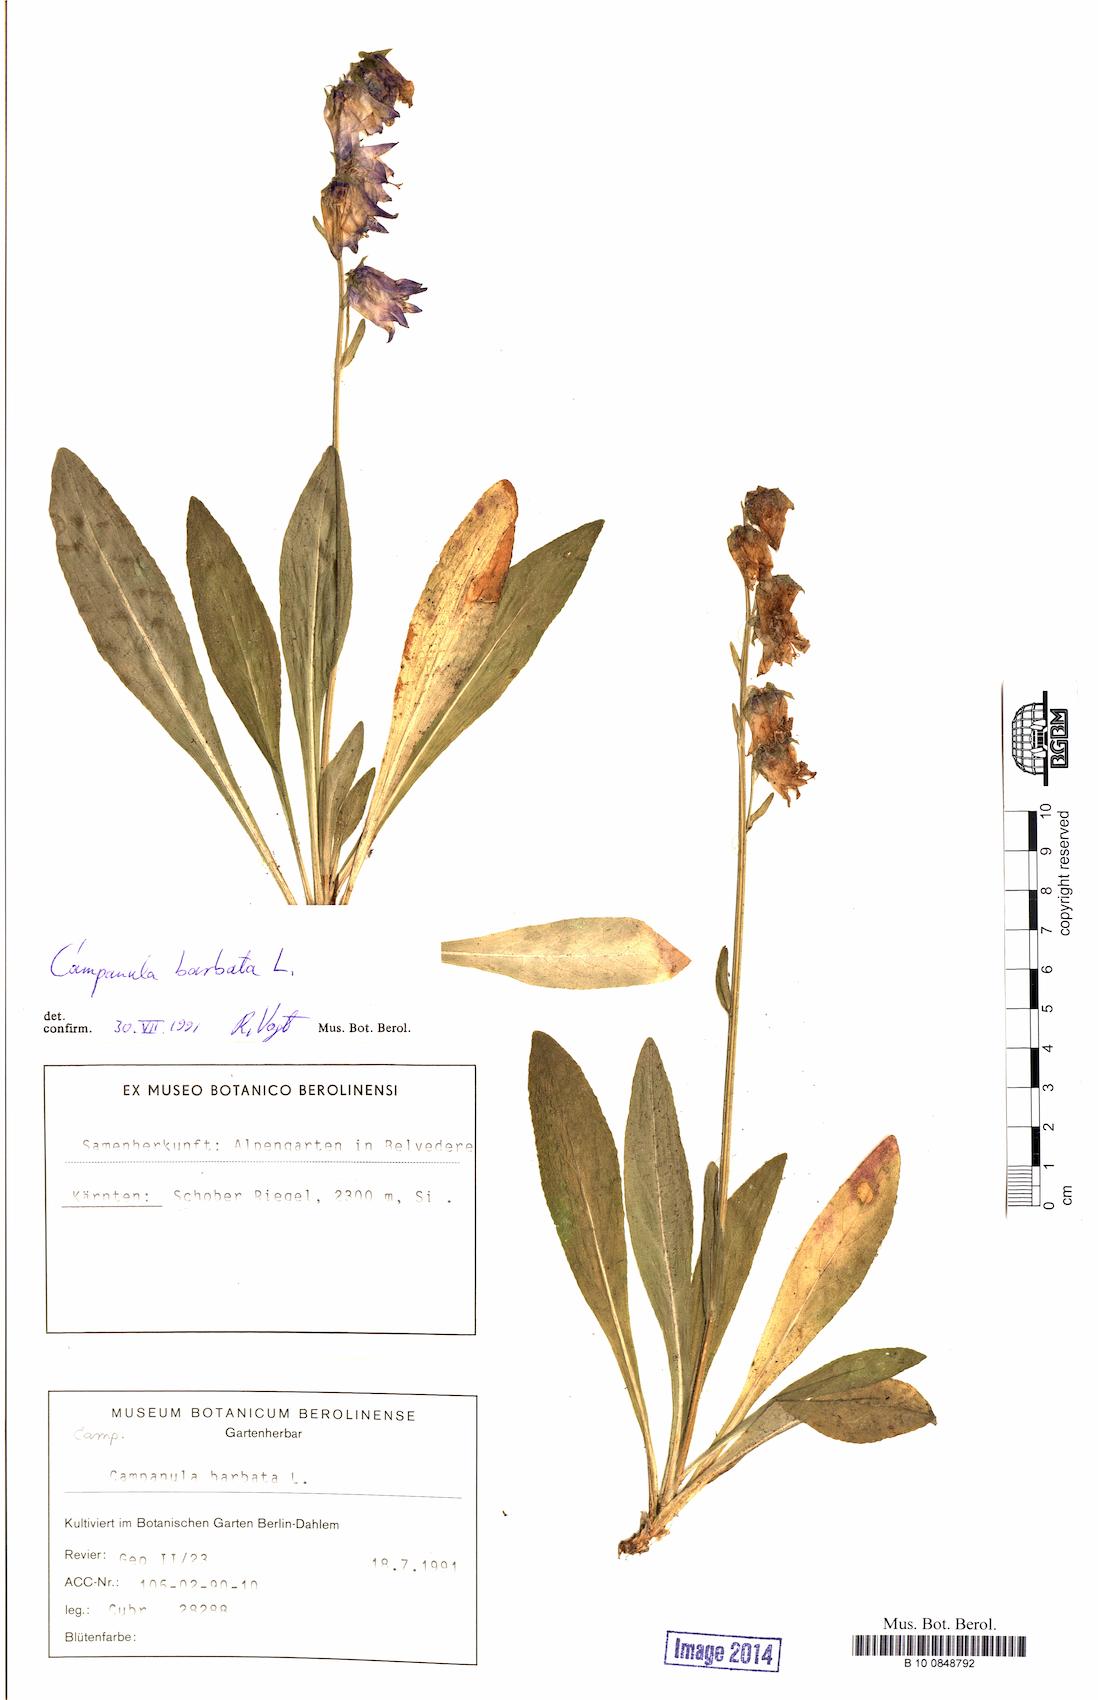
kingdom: Plantae
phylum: Tracheophyta
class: Magnoliopsida
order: Asterales
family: Campanulaceae
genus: Campanula
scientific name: Campanula barbata
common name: Bearded bellflower
